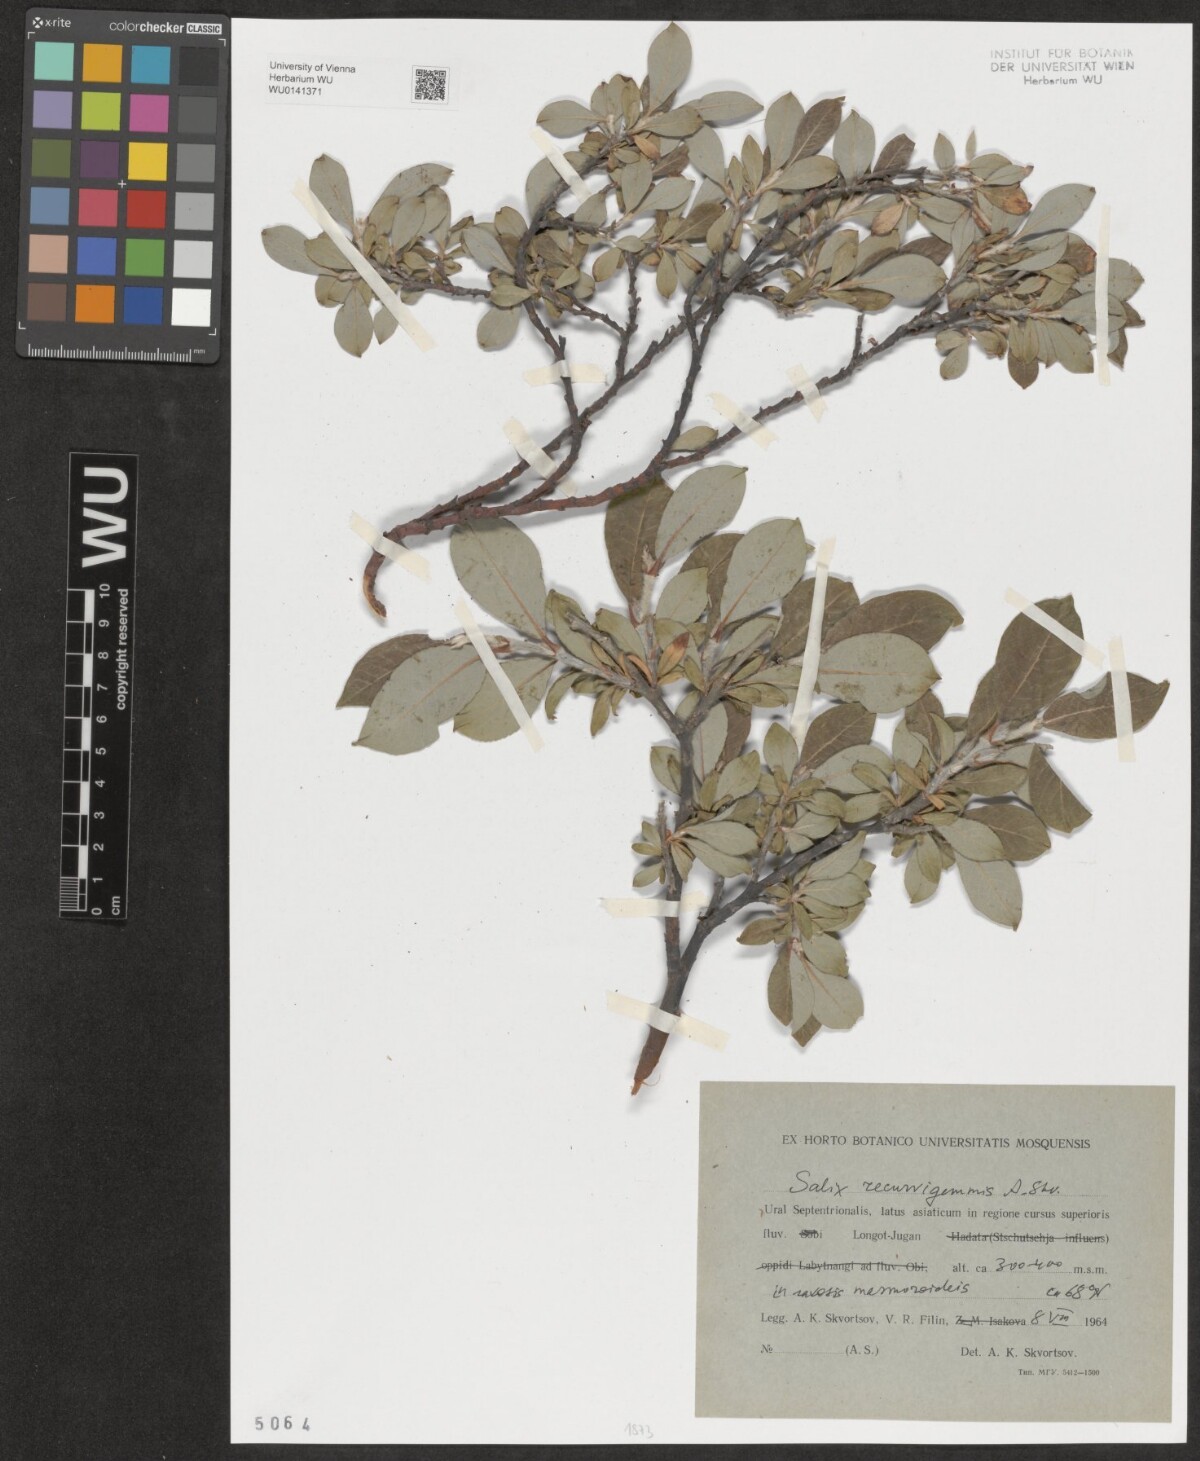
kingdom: Plantae
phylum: Tracheophyta
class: Magnoliopsida
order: Malpighiales
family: Salicaceae
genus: Salix
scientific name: Salix recurvigemmata
